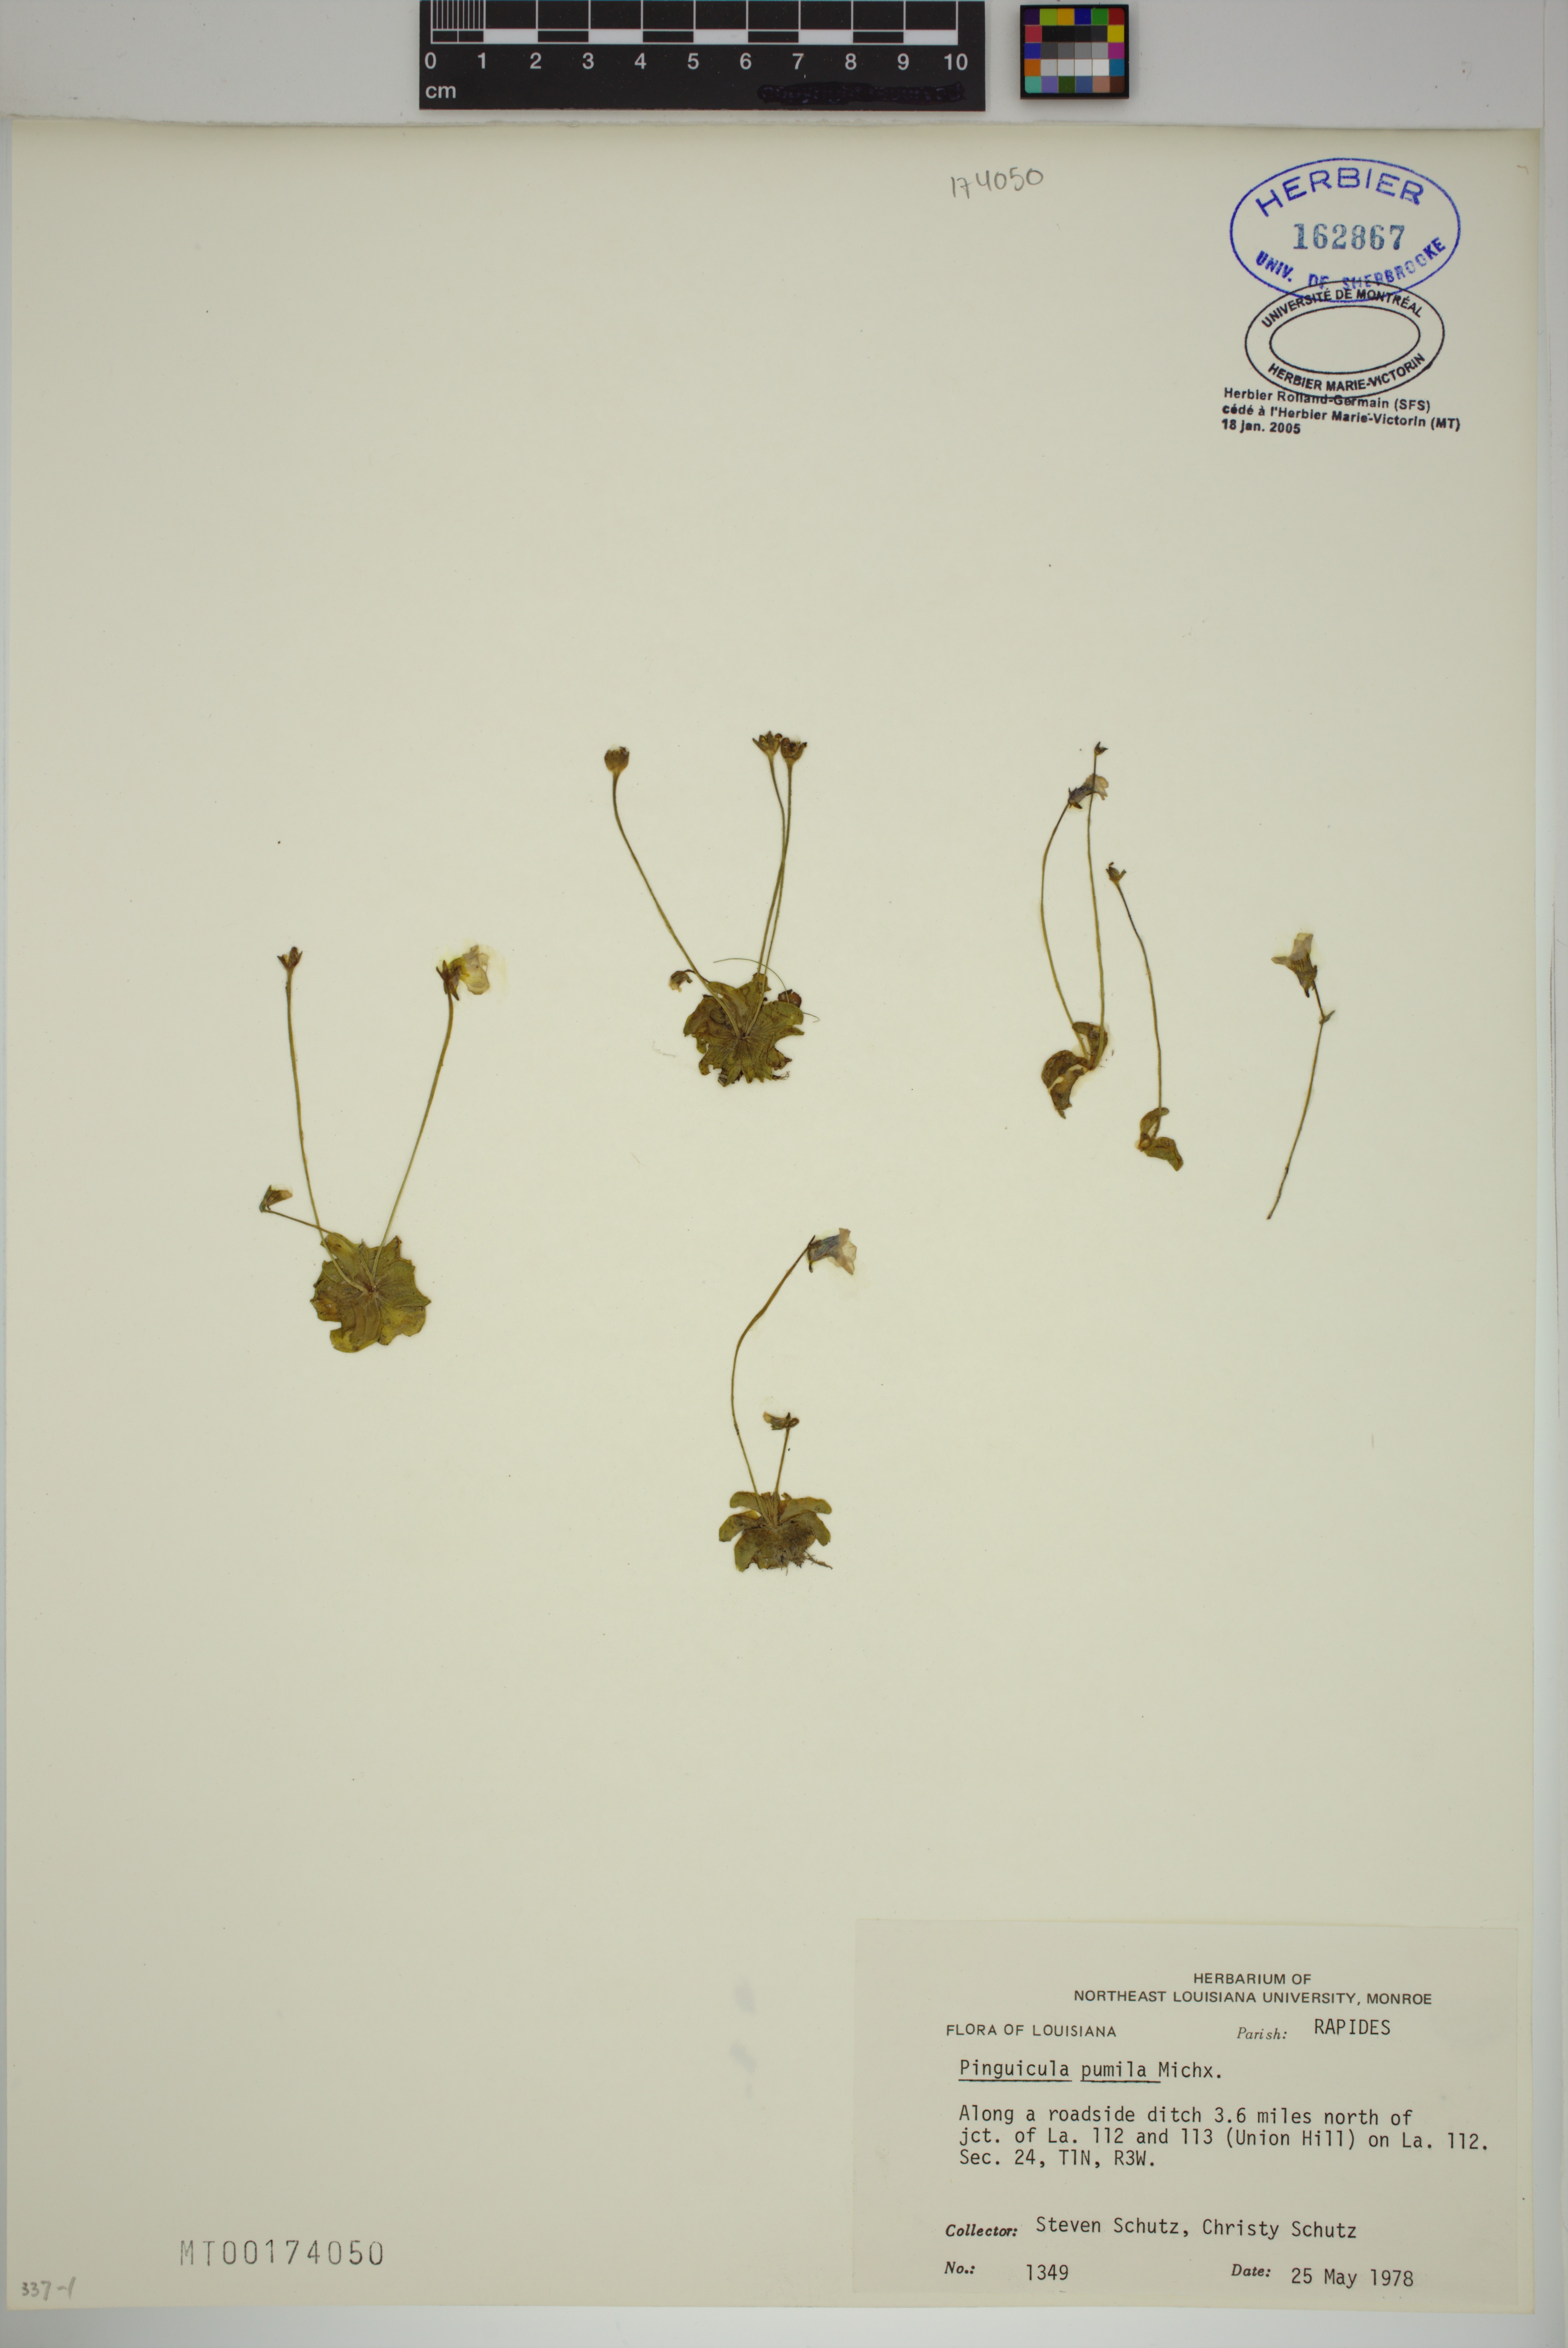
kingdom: Plantae
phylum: Tracheophyta
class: Magnoliopsida
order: Lamiales
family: Lentibulariaceae
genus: Pinguicula
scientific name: Pinguicula pumila
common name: Small butterwort
